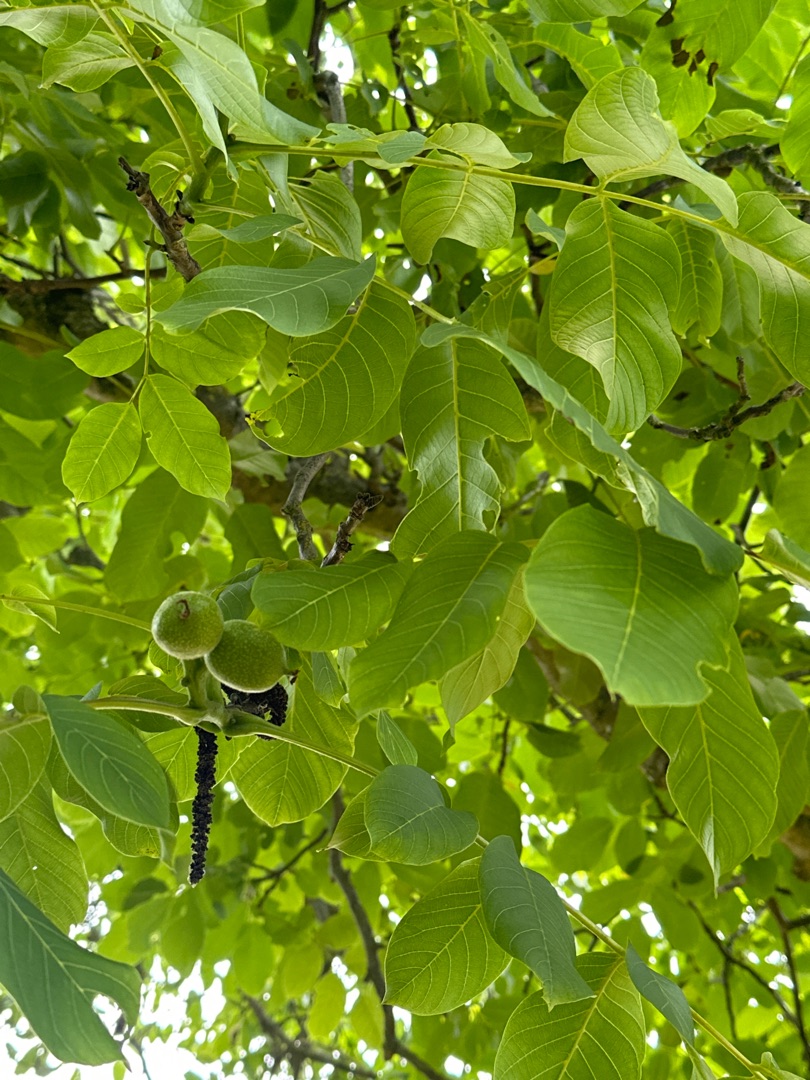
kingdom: Plantae
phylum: Tracheophyta
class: Magnoliopsida
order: Fagales
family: Juglandaceae
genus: Juglans
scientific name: Juglans regia
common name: Almindelig valnød
